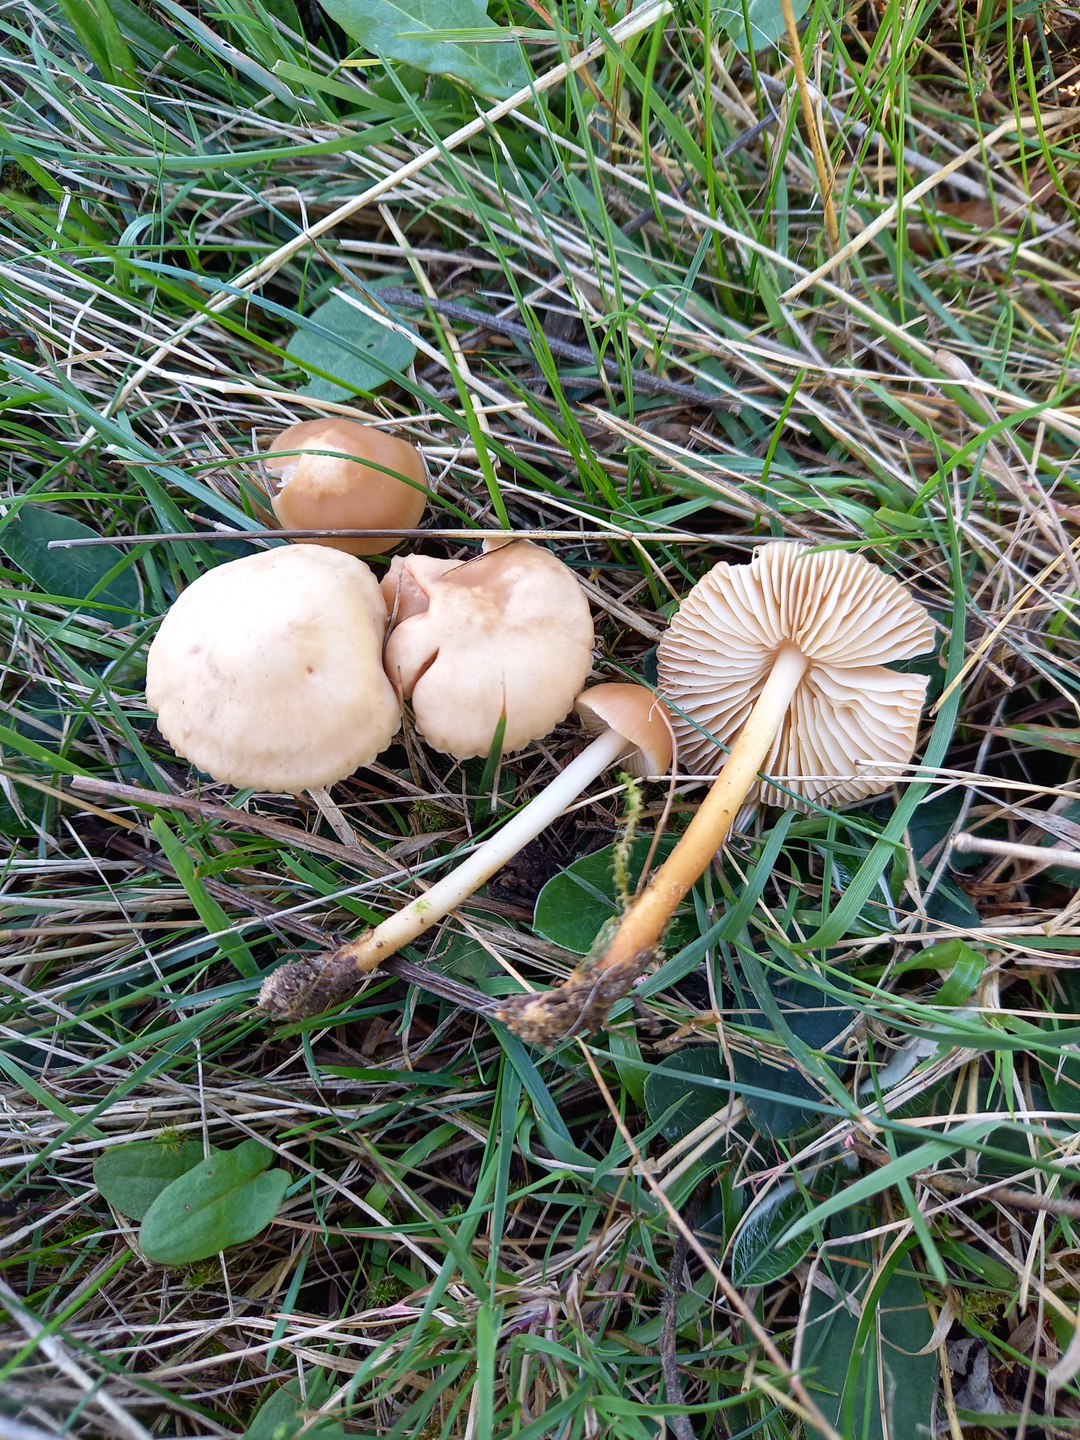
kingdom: Fungi
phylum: Basidiomycota
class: Agaricomycetes
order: Agaricales
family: Marasmiaceae
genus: Marasmius
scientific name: Marasmius oreades
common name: elledans-bruskhat
